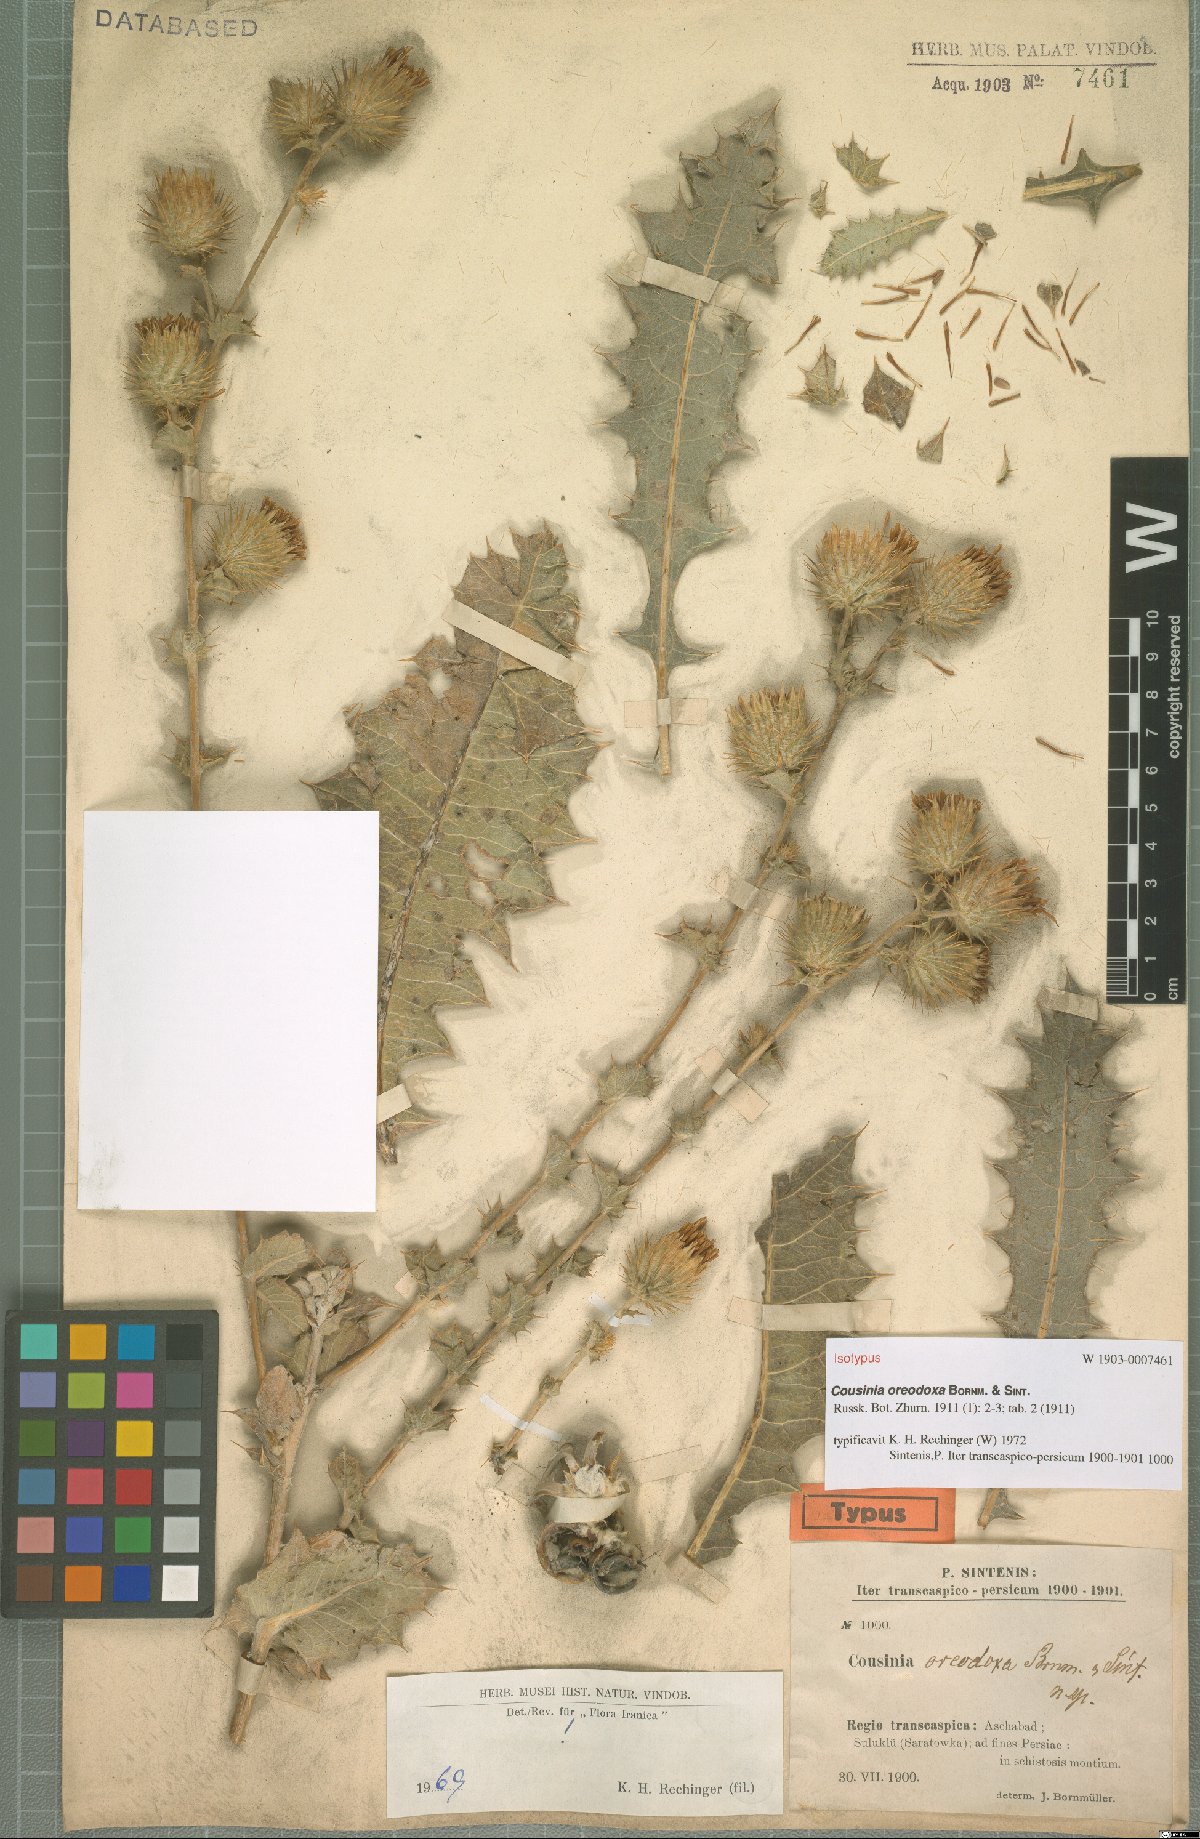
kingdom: Plantae
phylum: Tracheophyta
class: Magnoliopsida
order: Asterales
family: Asteraceae
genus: Cousinia
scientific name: Cousinia oreodoxa
